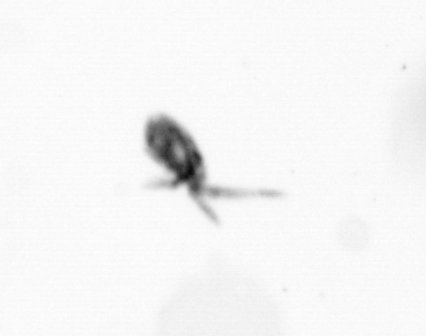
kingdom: Animalia
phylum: Arthropoda
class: Copepoda
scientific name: Copepoda
